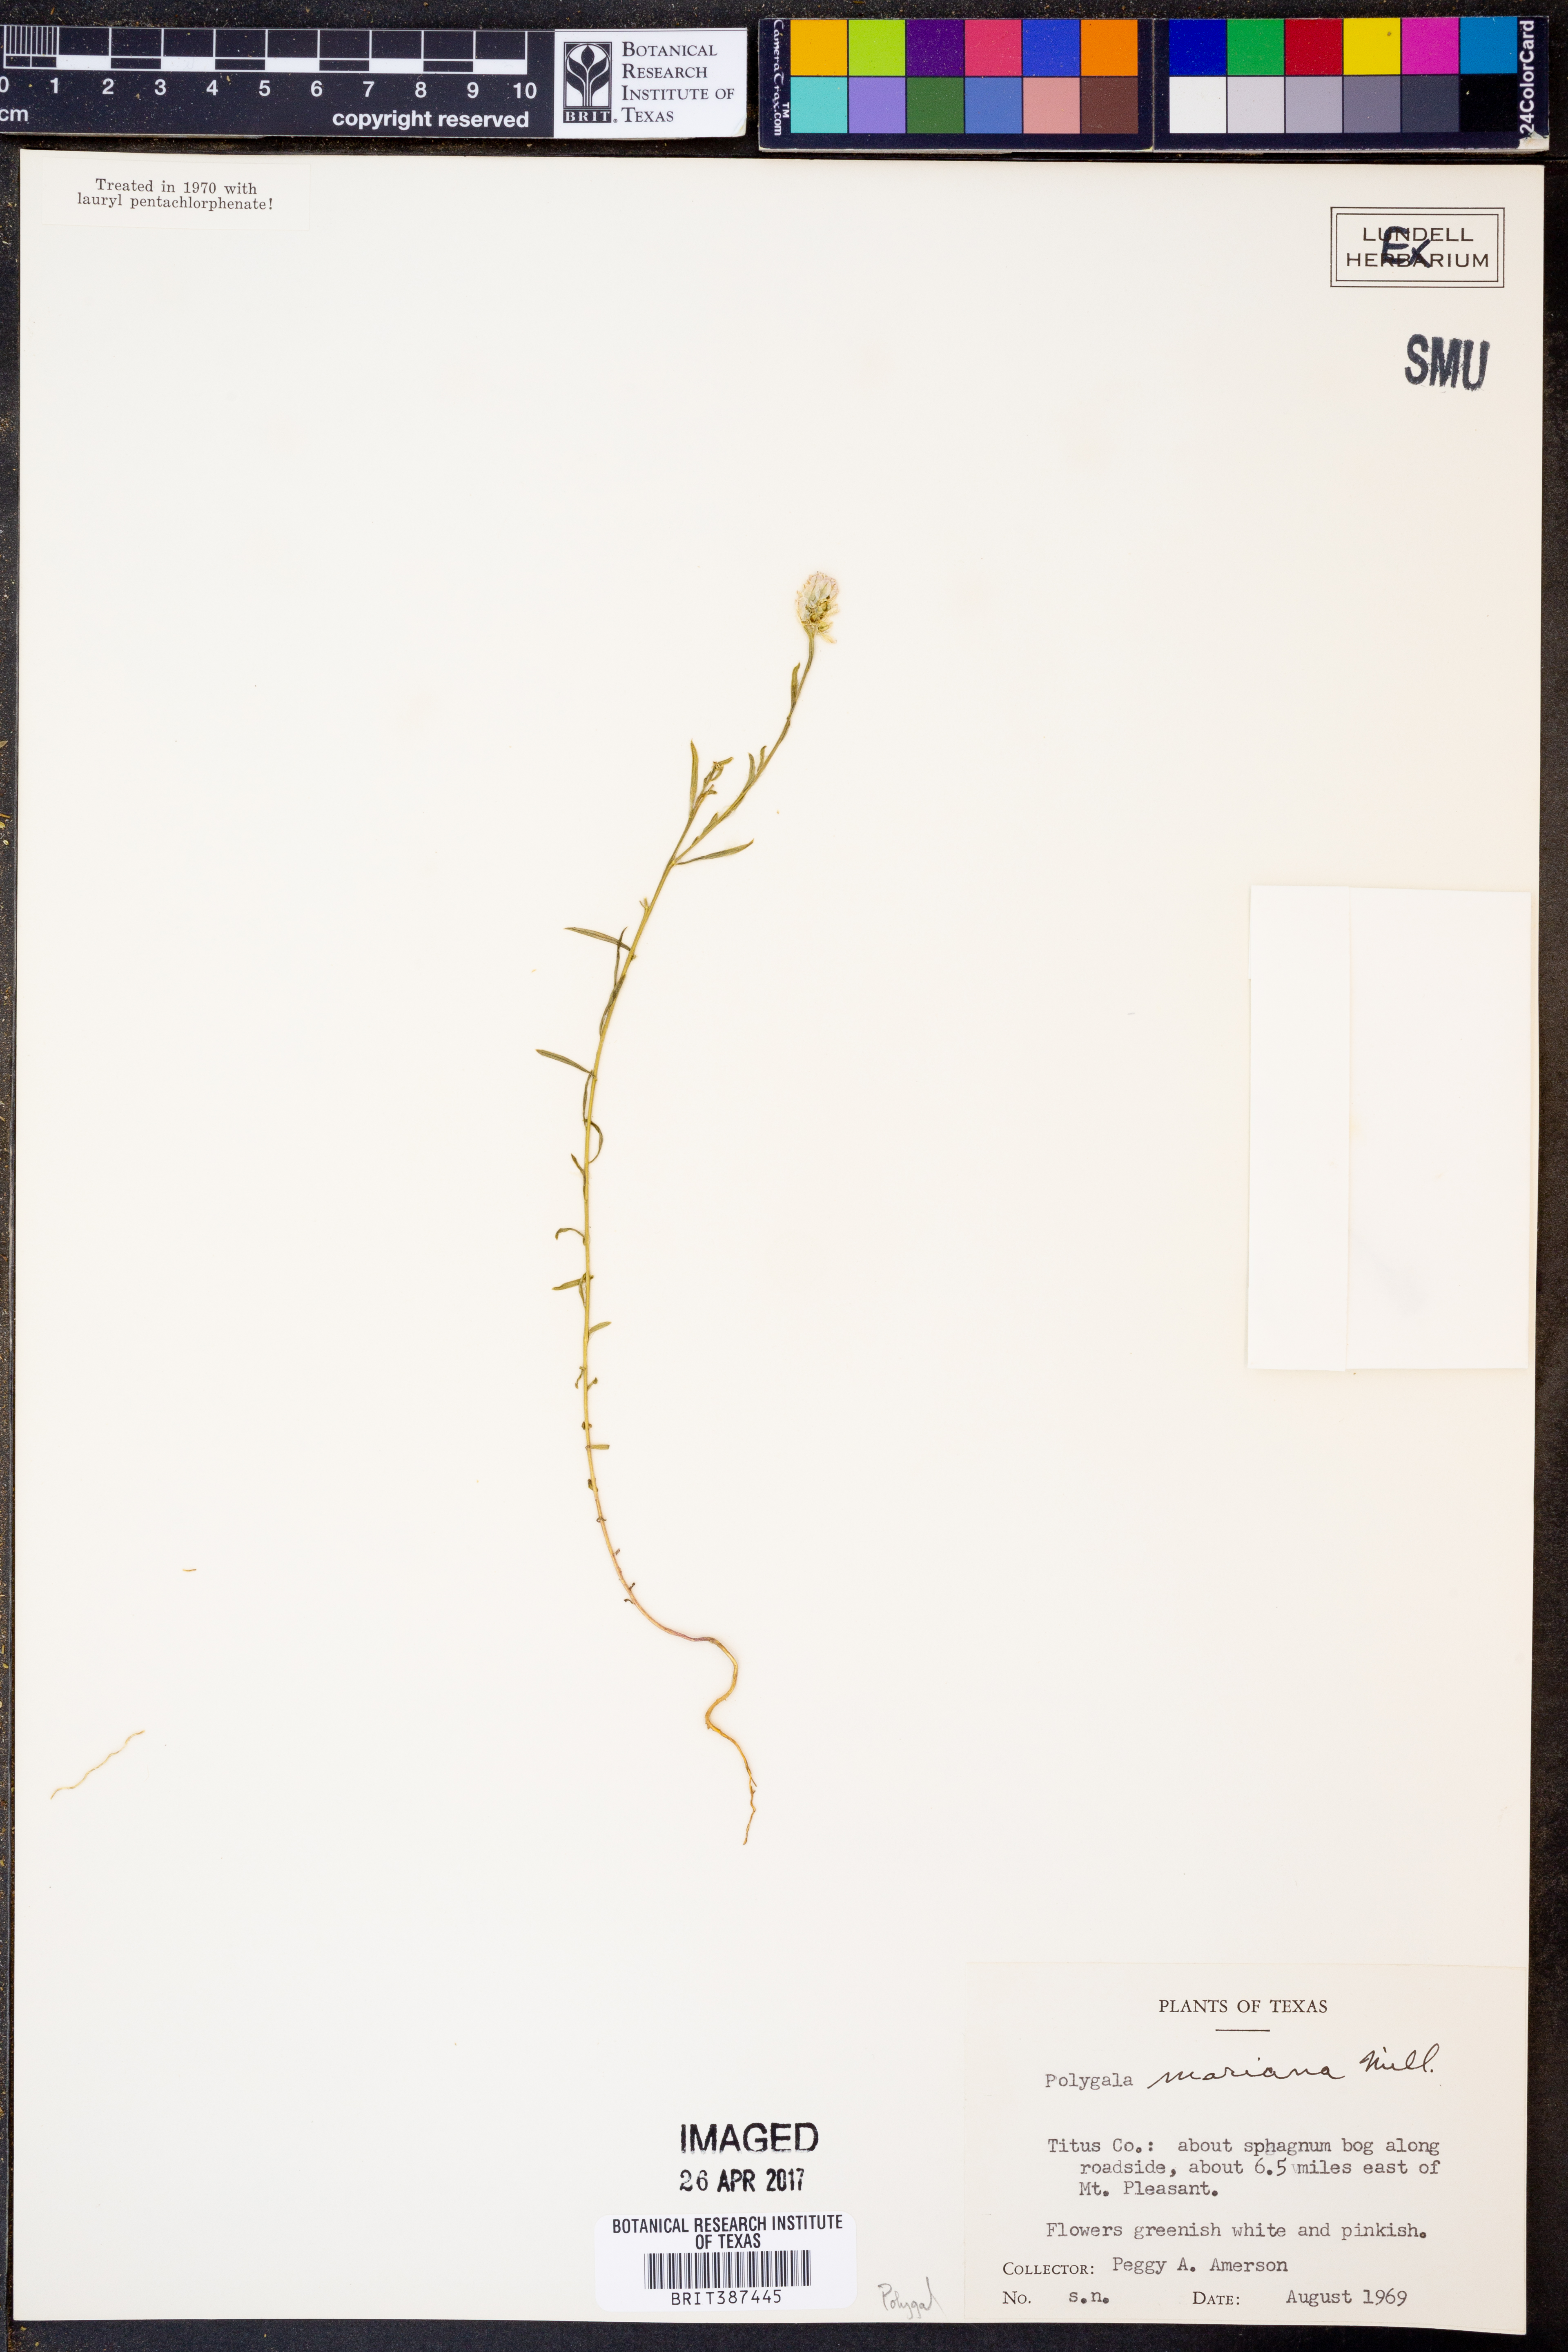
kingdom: Plantae
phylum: Tracheophyta
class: Magnoliopsida
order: Fabales
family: Polygalaceae
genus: Polygala
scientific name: Polygala mariana
